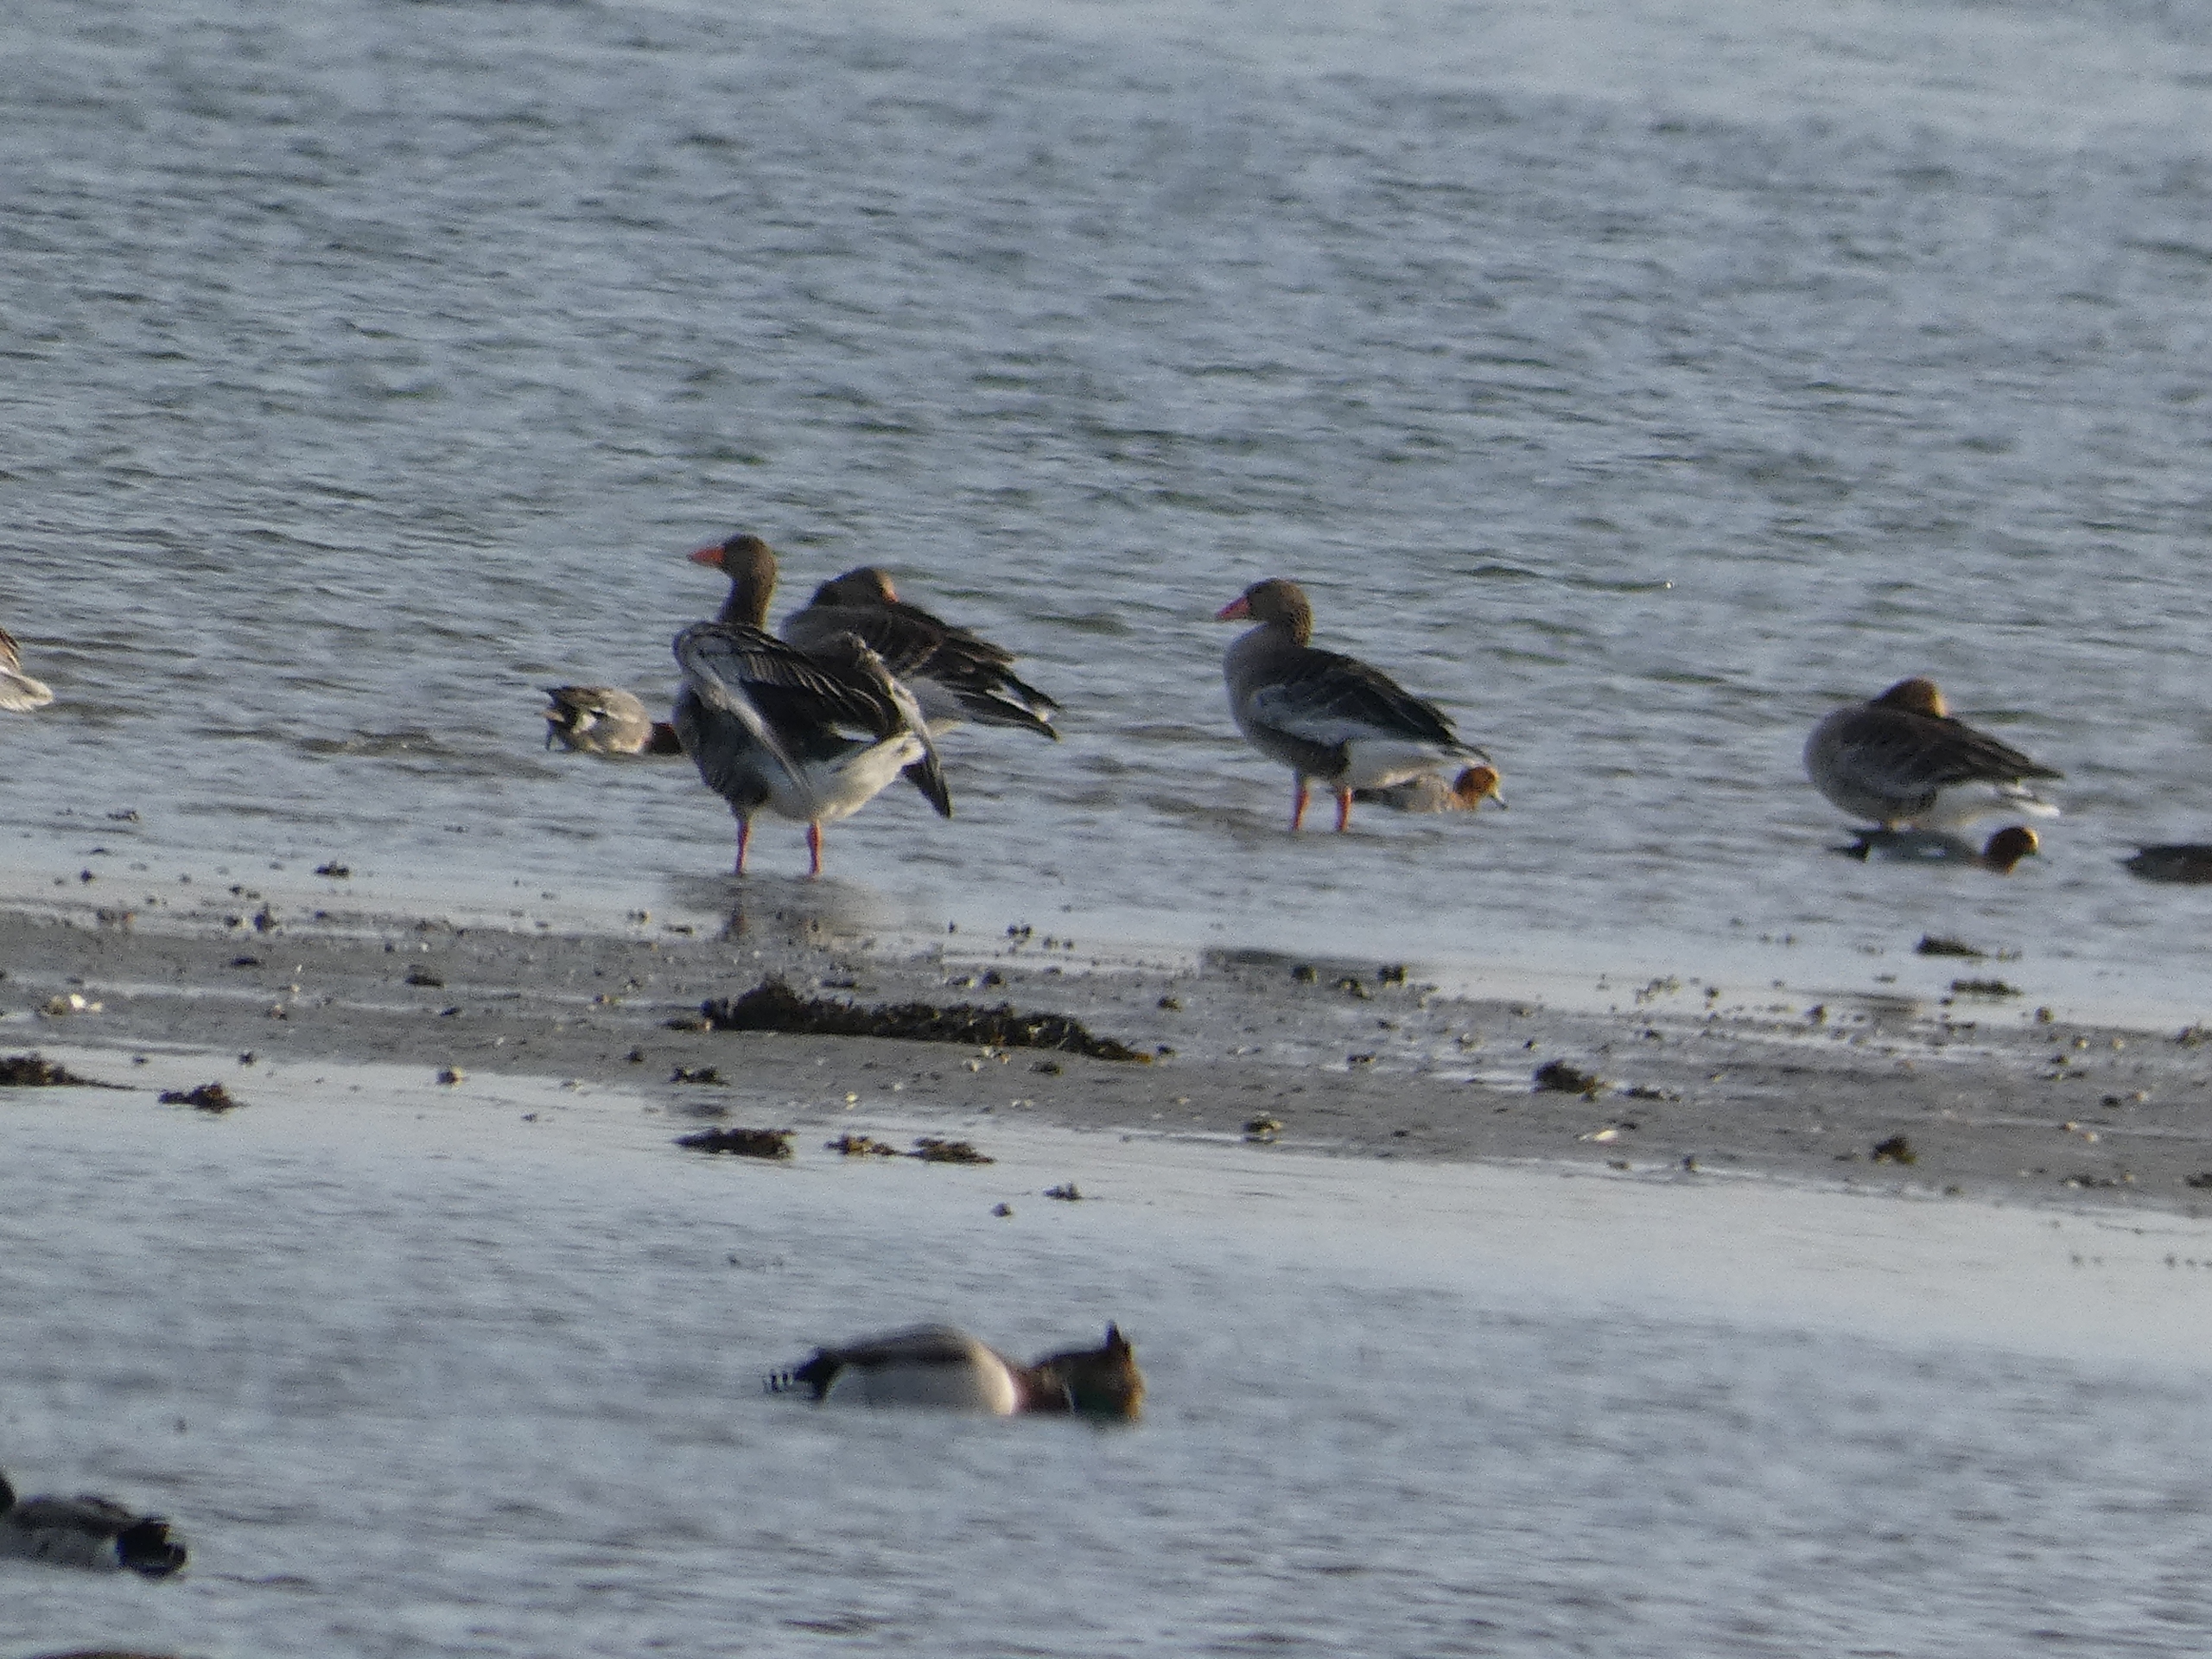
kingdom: Animalia
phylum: Chordata
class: Aves
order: Anseriformes
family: Anatidae
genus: Mareca
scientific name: Mareca penelope
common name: Pibeand
